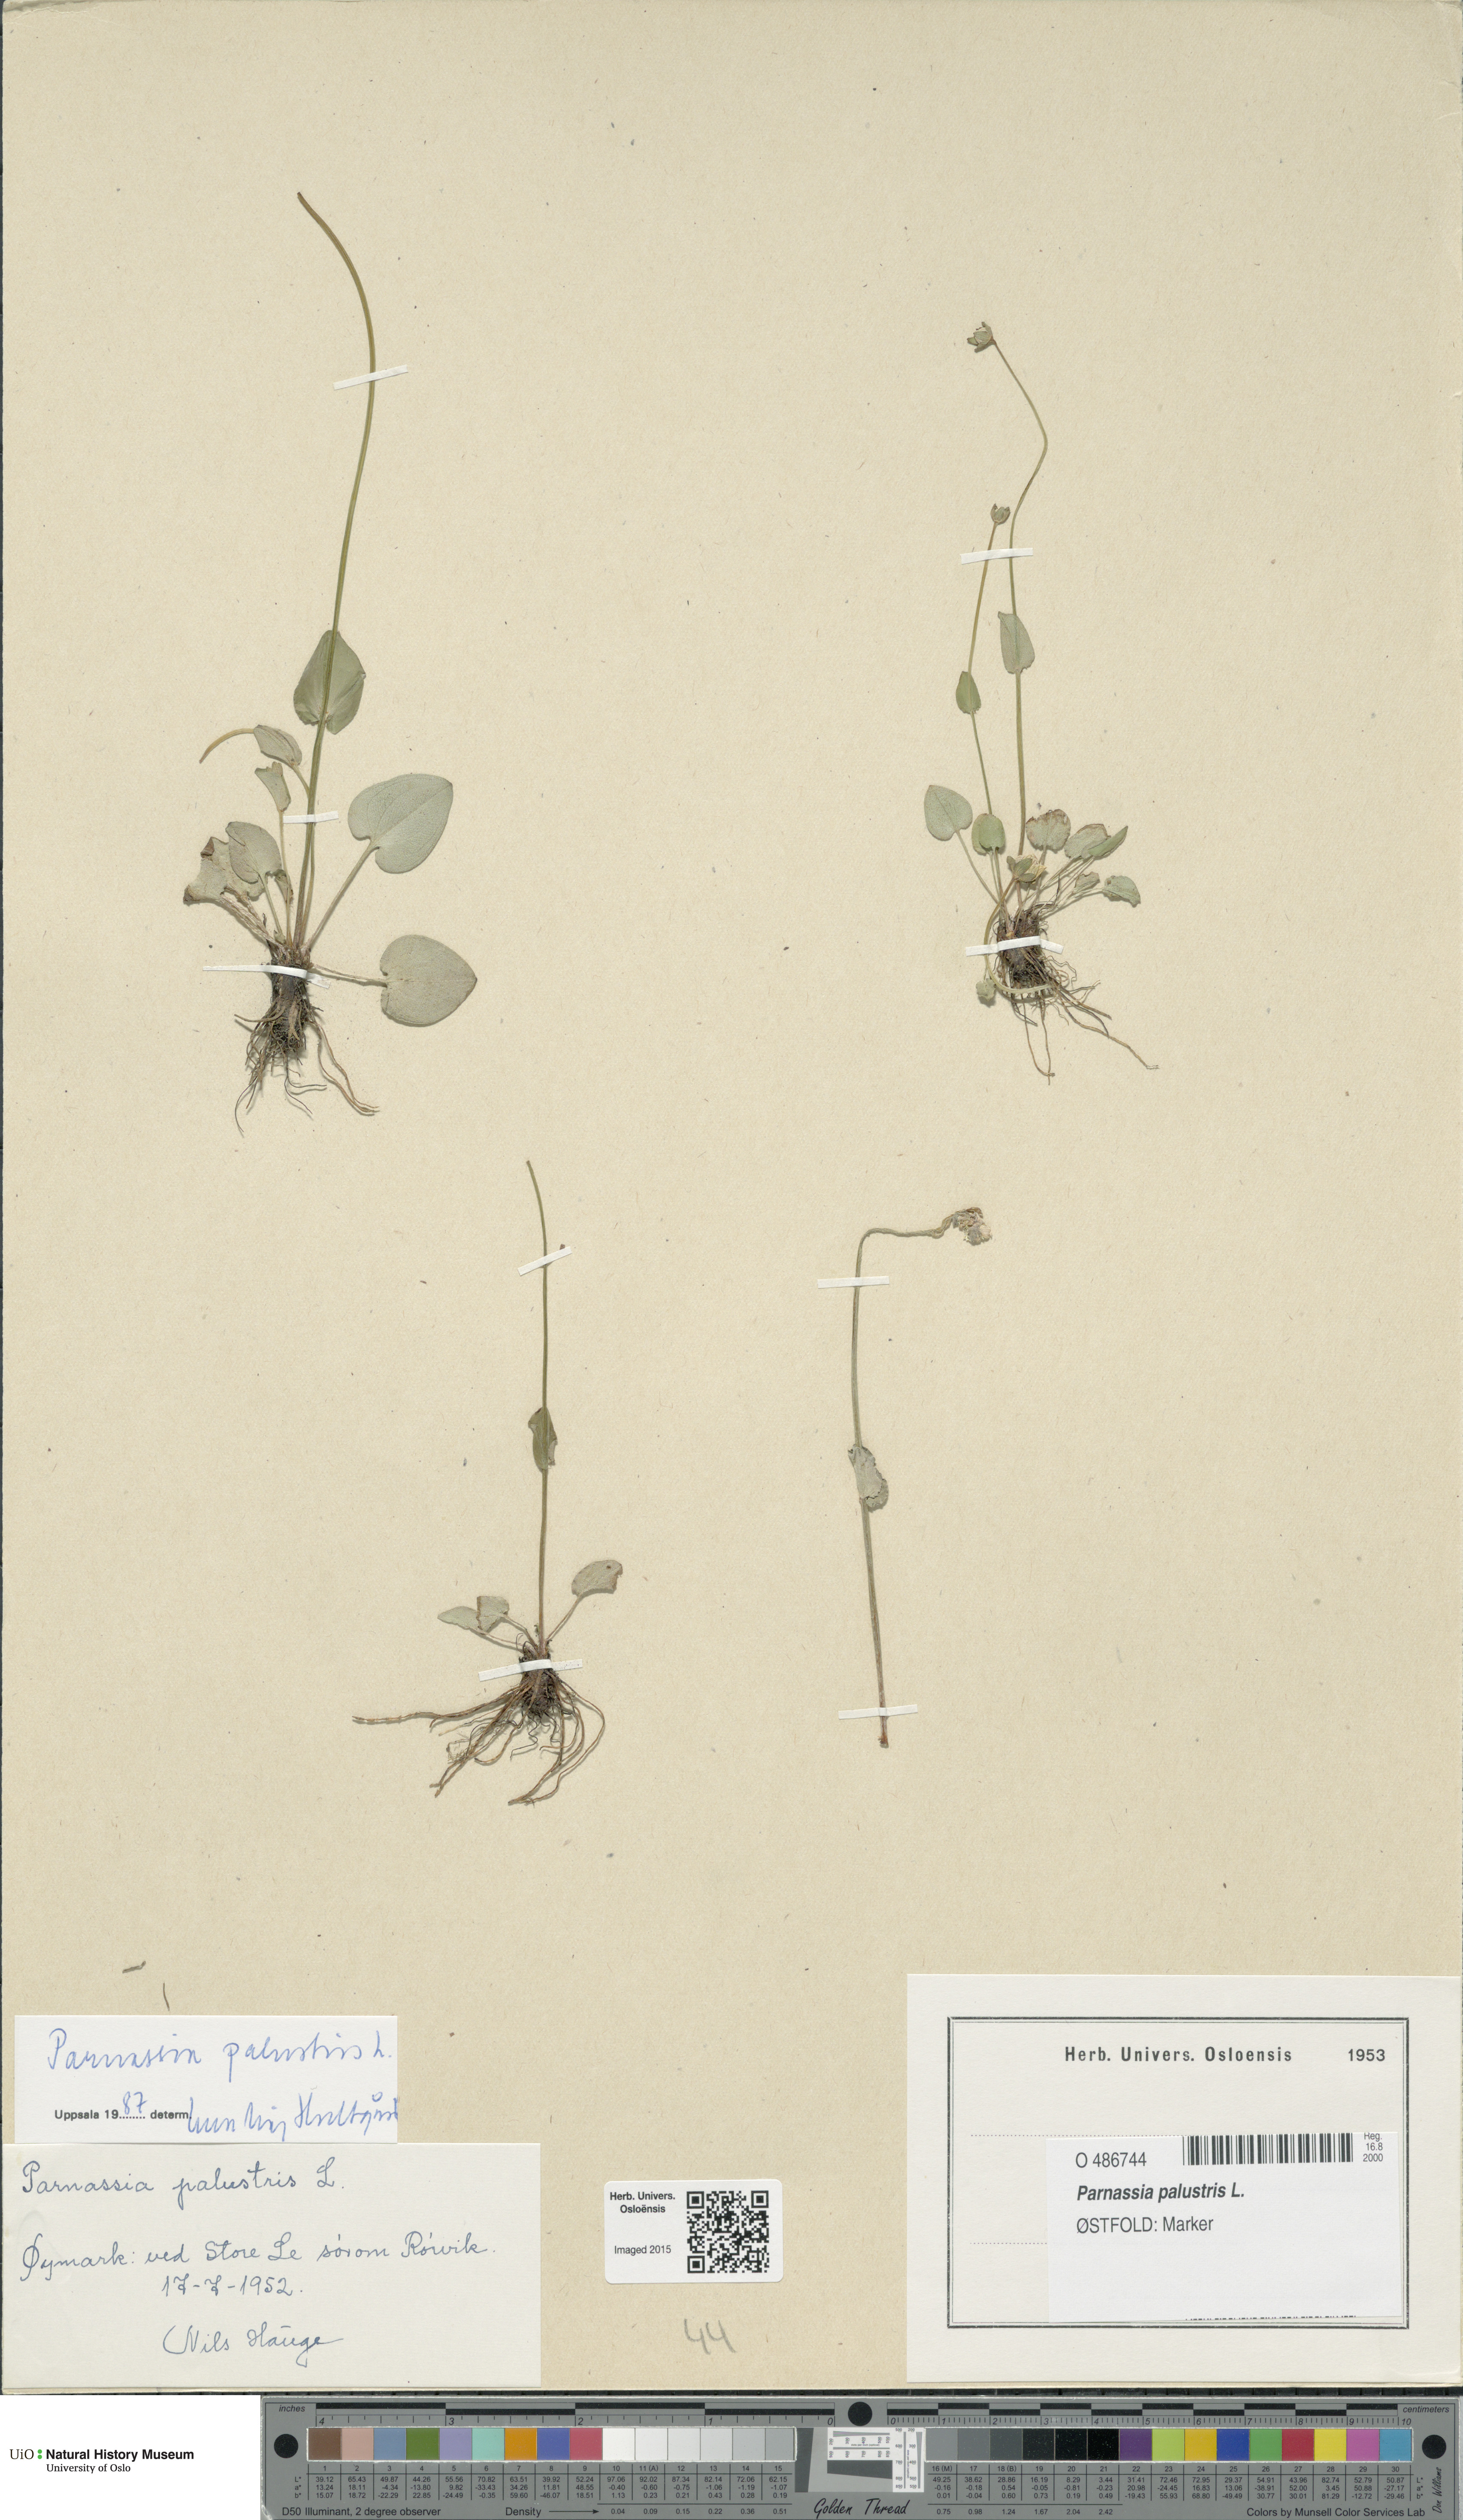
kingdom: Plantae
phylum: Tracheophyta
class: Magnoliopsida
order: Celastrales
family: Parnassiaceae
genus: Parnassia
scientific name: Parnassia palustris
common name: Grass-of-parnassus
